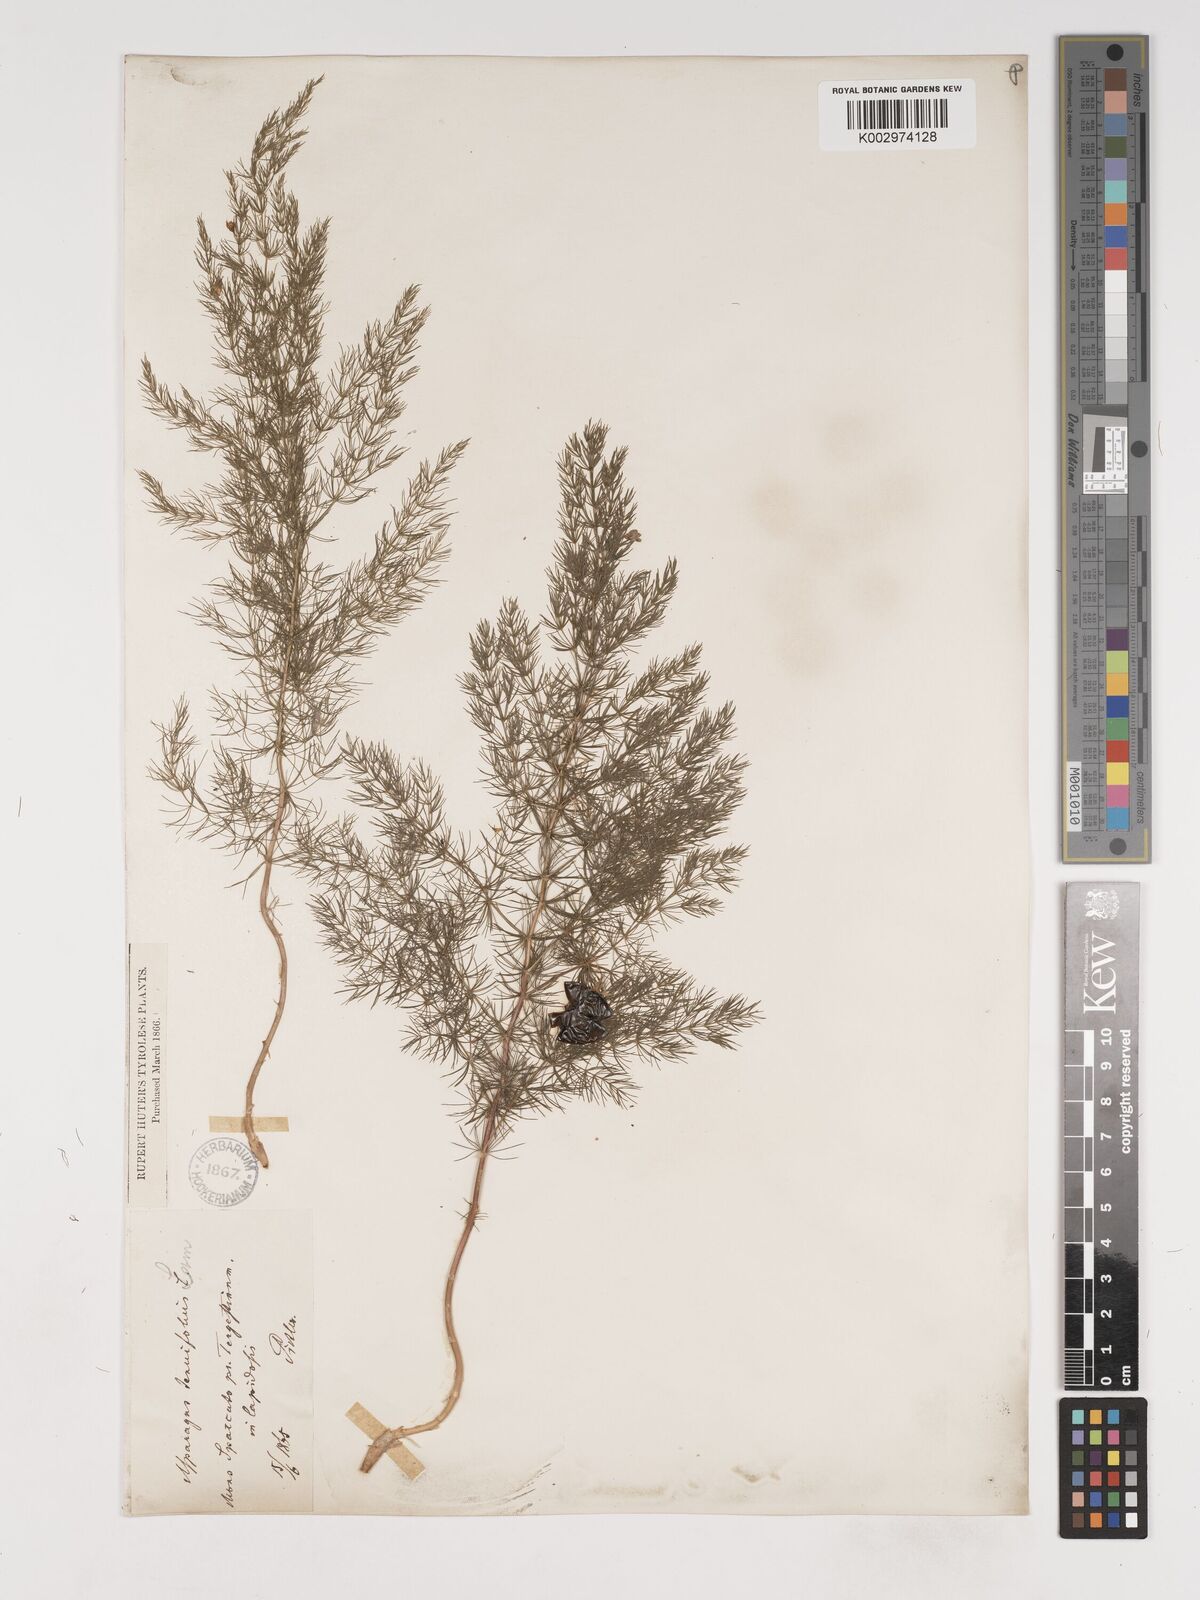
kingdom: Plantae
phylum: Tracheophyta
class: Liliopsida
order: Asparagales
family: Asparagaceae
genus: Asparagus
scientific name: Asparagus tenuifolius
